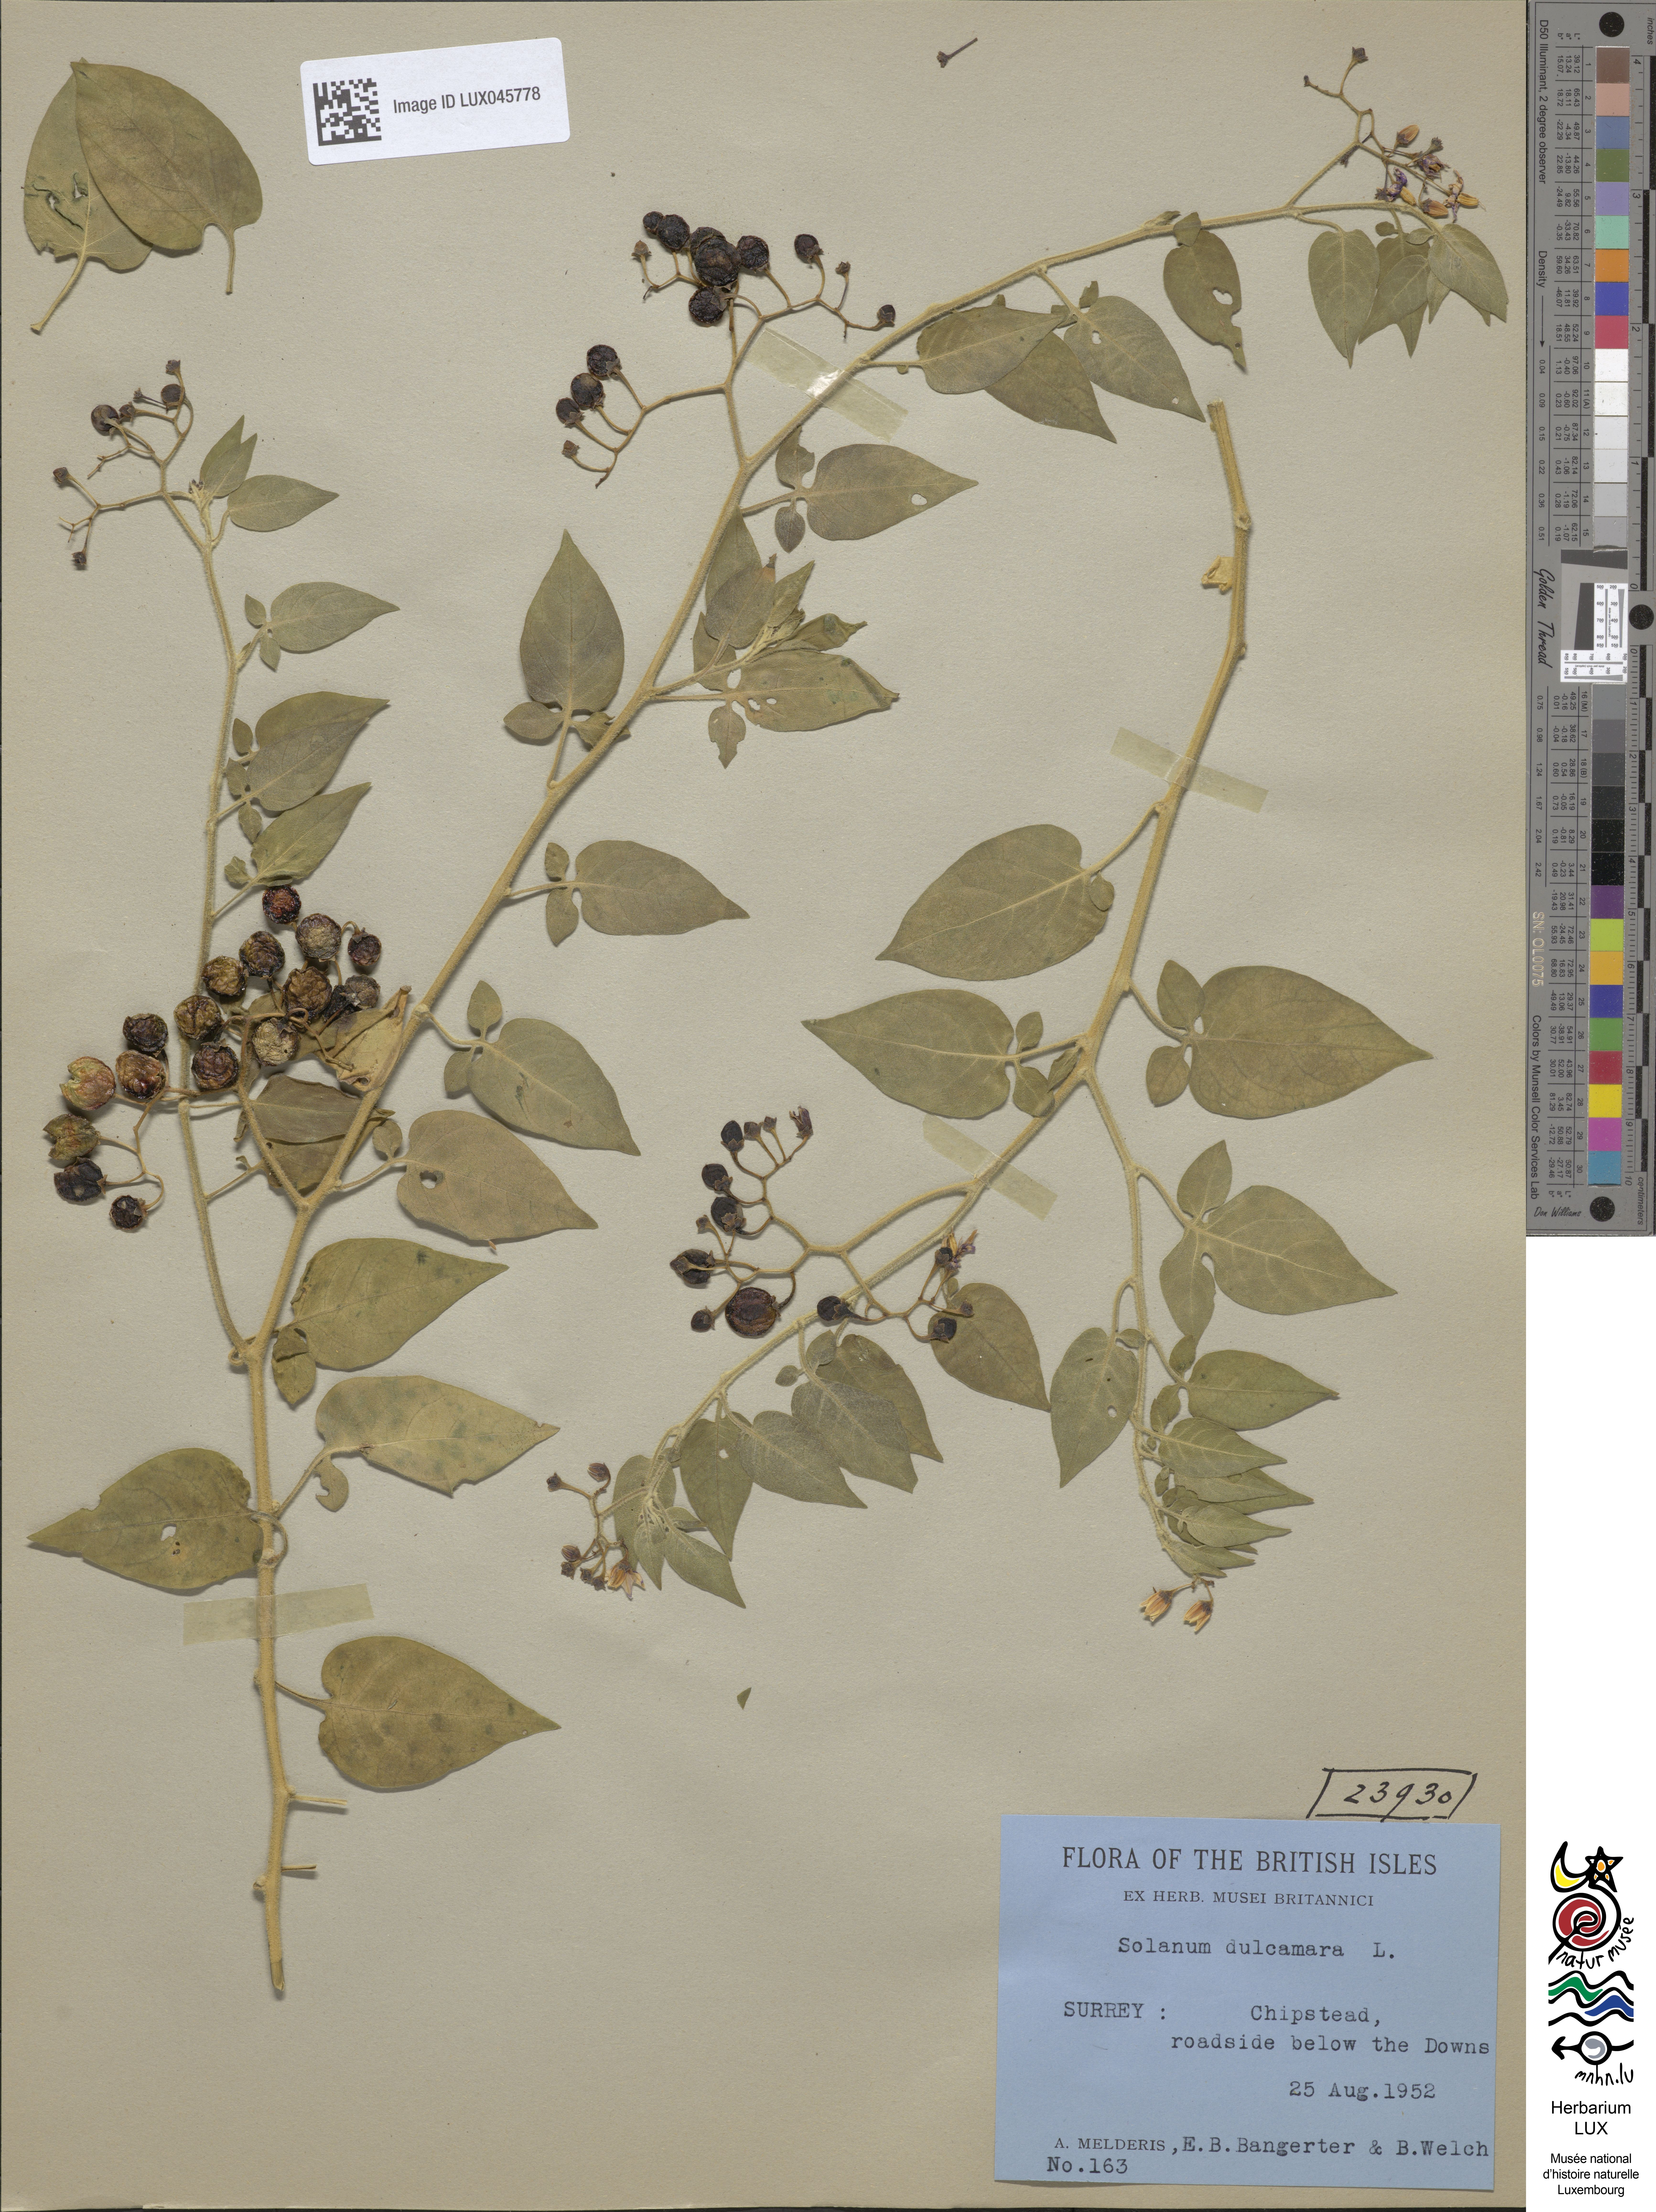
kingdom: Plantae
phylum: Tracheophyta
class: Magnoliopsida
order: Solanales
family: Solanaceae
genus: Solanum
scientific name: Solanum dulcamara
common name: Climbing nightshade
